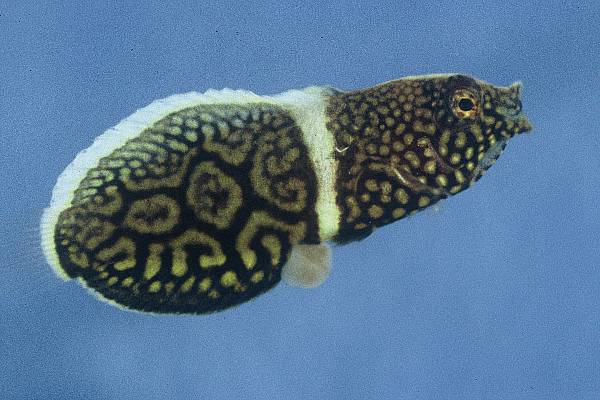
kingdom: Animalia
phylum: Chordata
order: Perciformes
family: Labridae
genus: Anampses
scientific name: Anampses lineatus
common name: Lined wrasse
